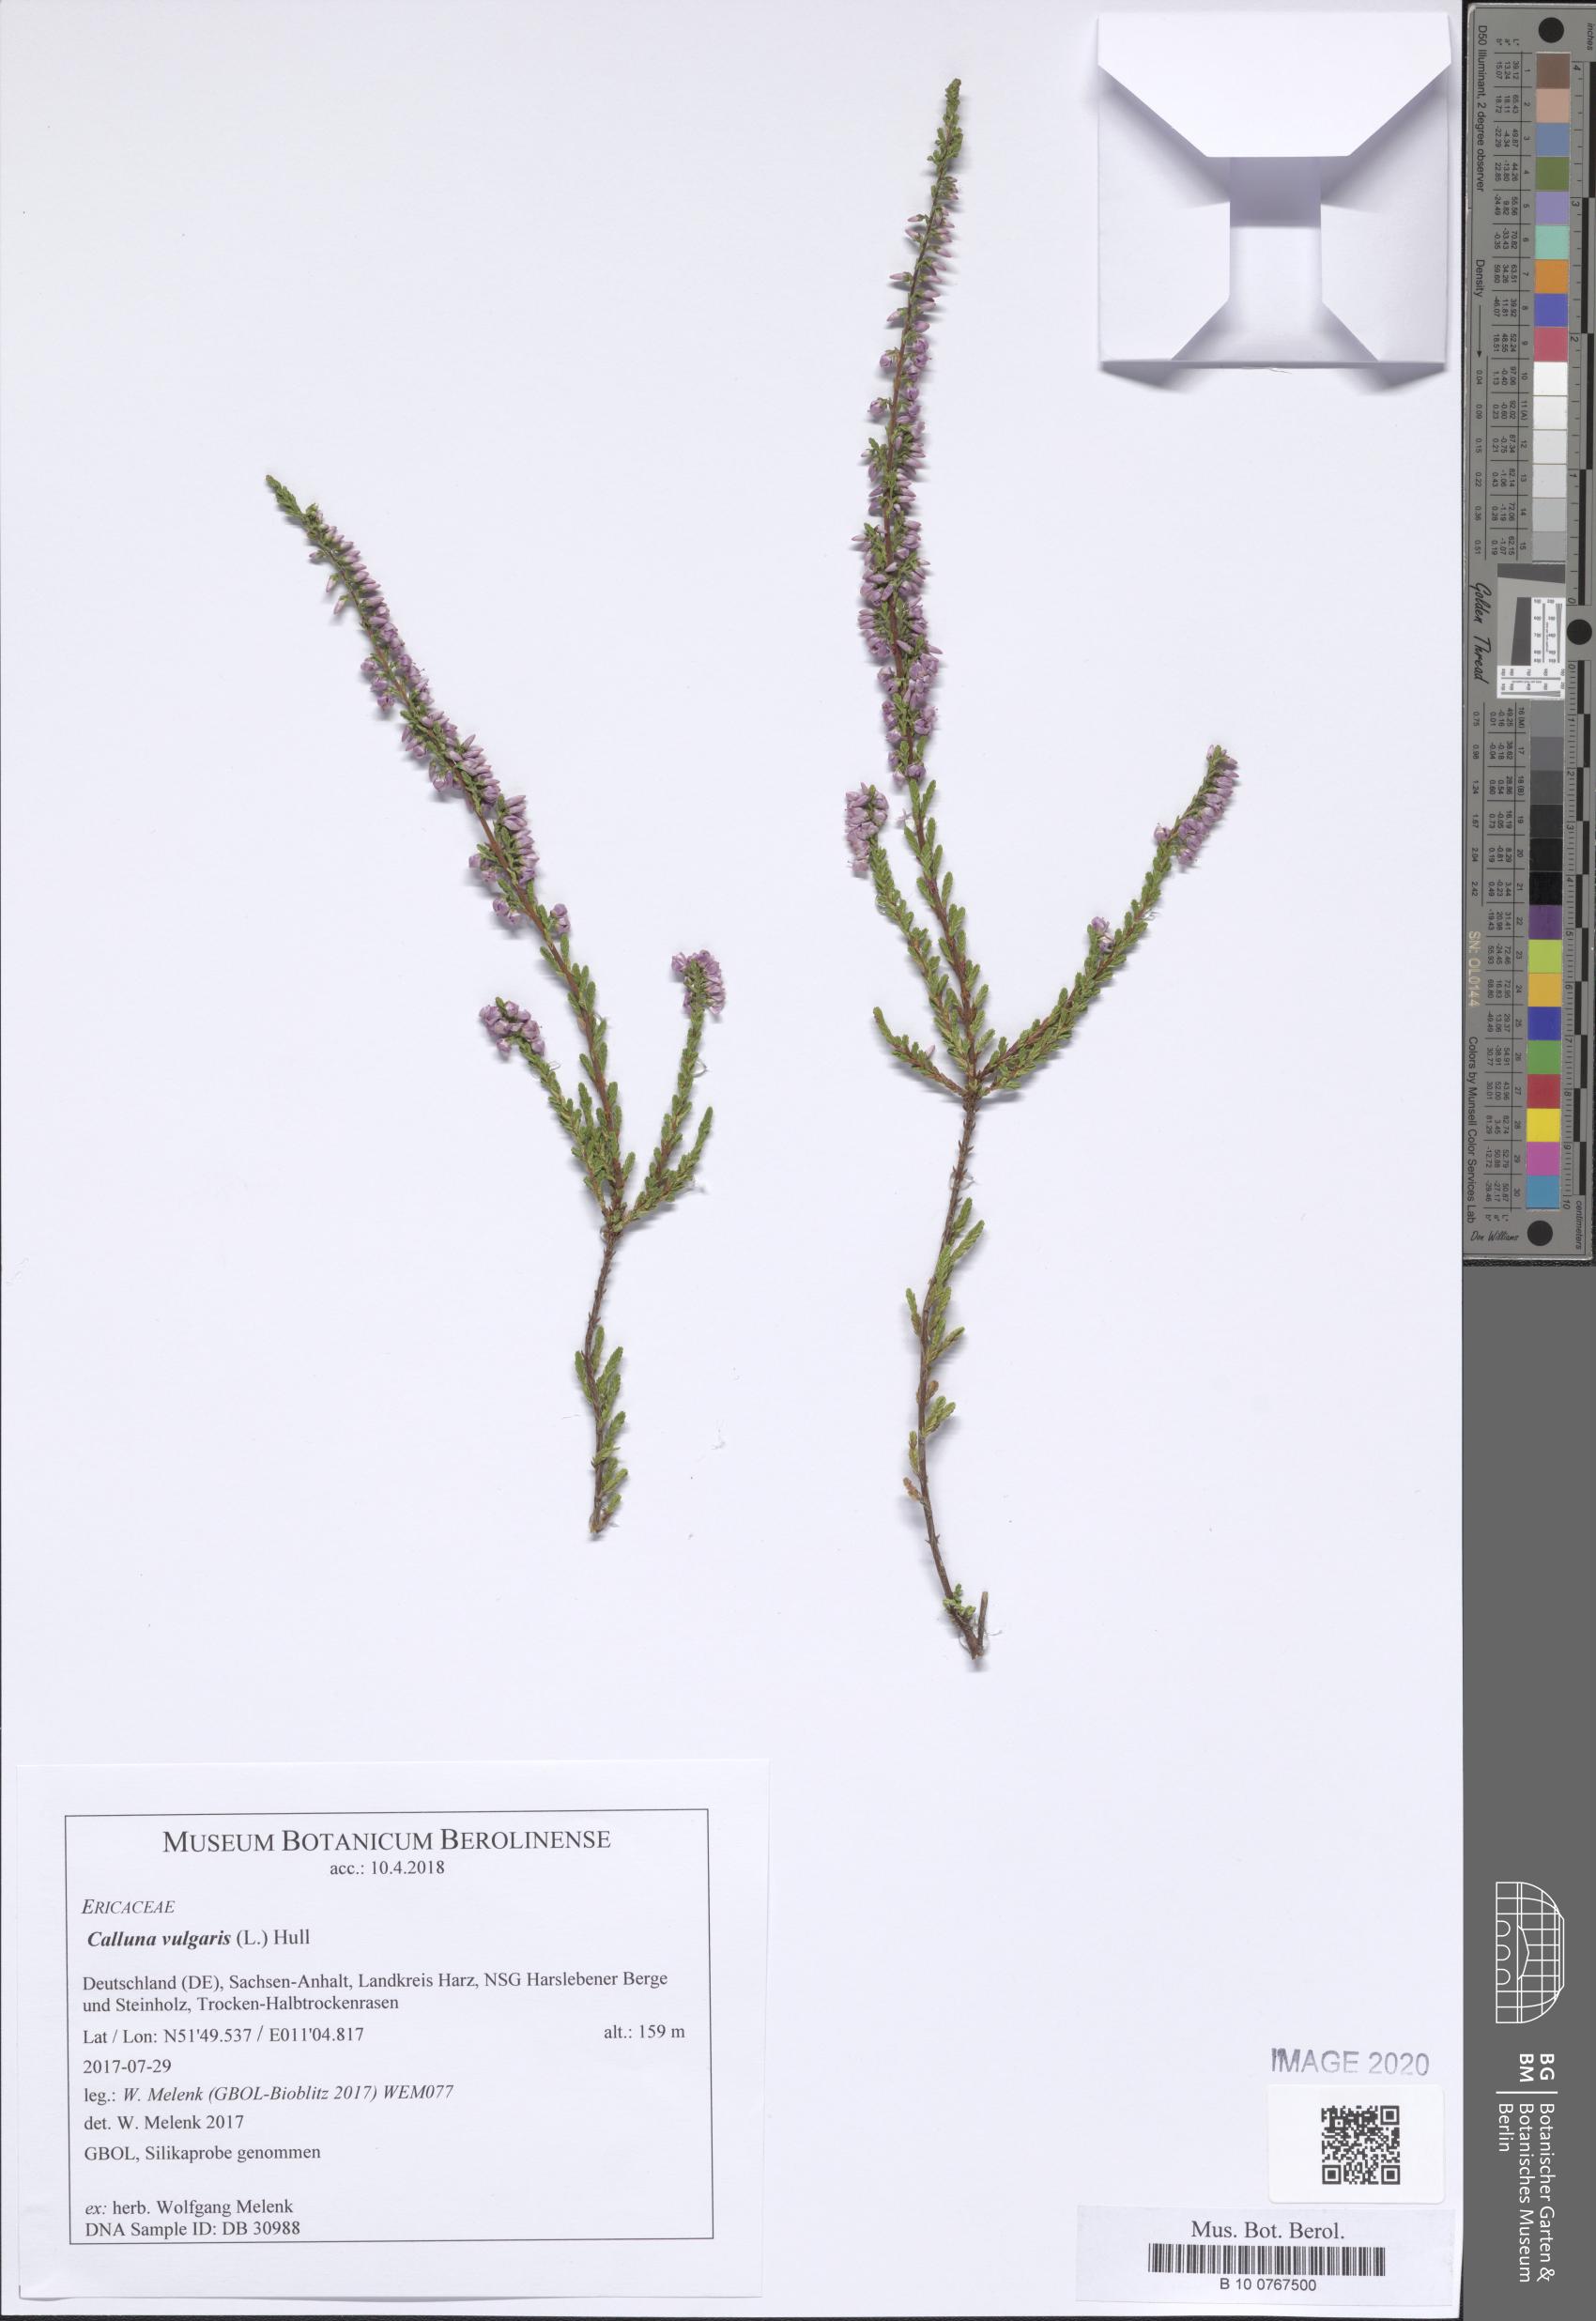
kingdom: Plantae
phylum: Tracheophyta
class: Magnoliopsida
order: Ericales
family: Ericaceae
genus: Calluna
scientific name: Calluna vulgaris
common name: Heather
